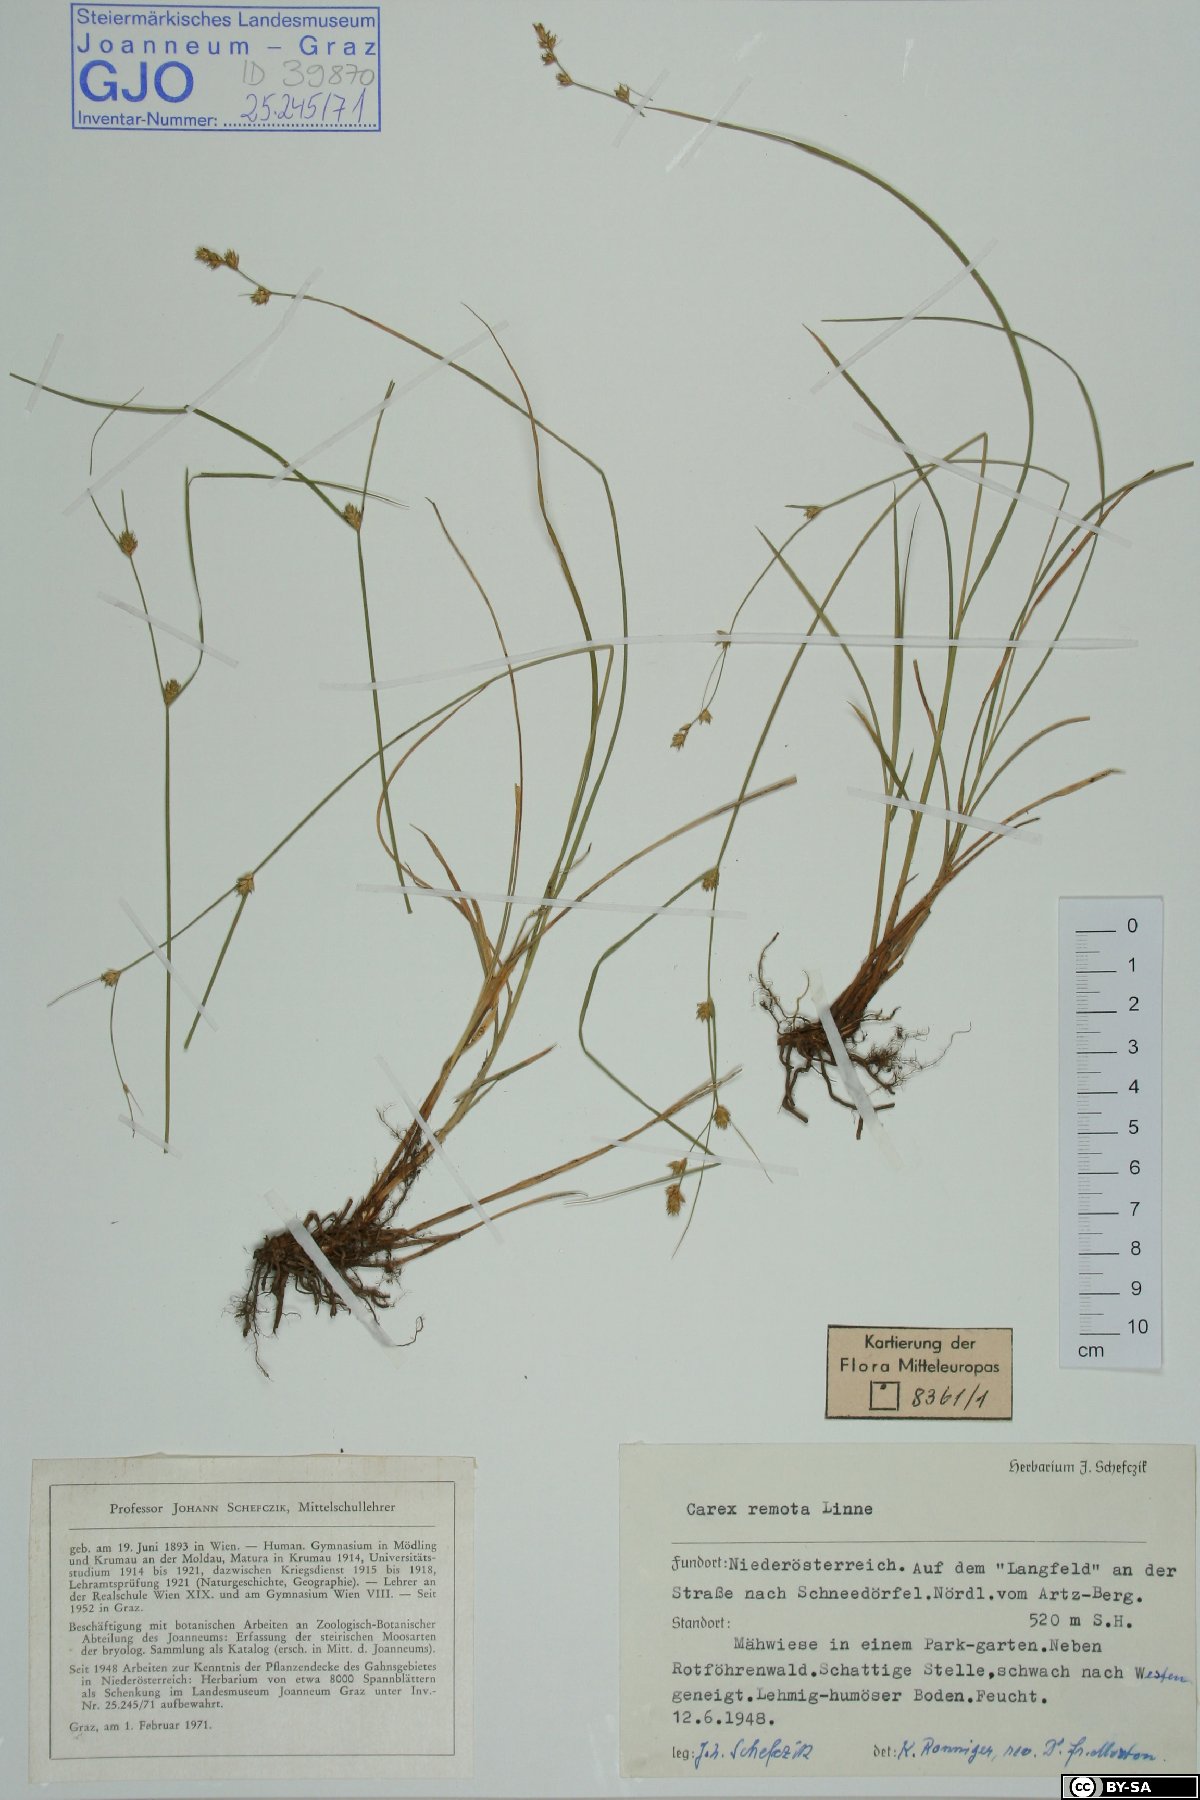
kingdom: Plantae
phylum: Tracheophyta
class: Liliopsida
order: Poales
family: Cyperaceae
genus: Carex
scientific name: Carex remota
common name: Remote sedge
